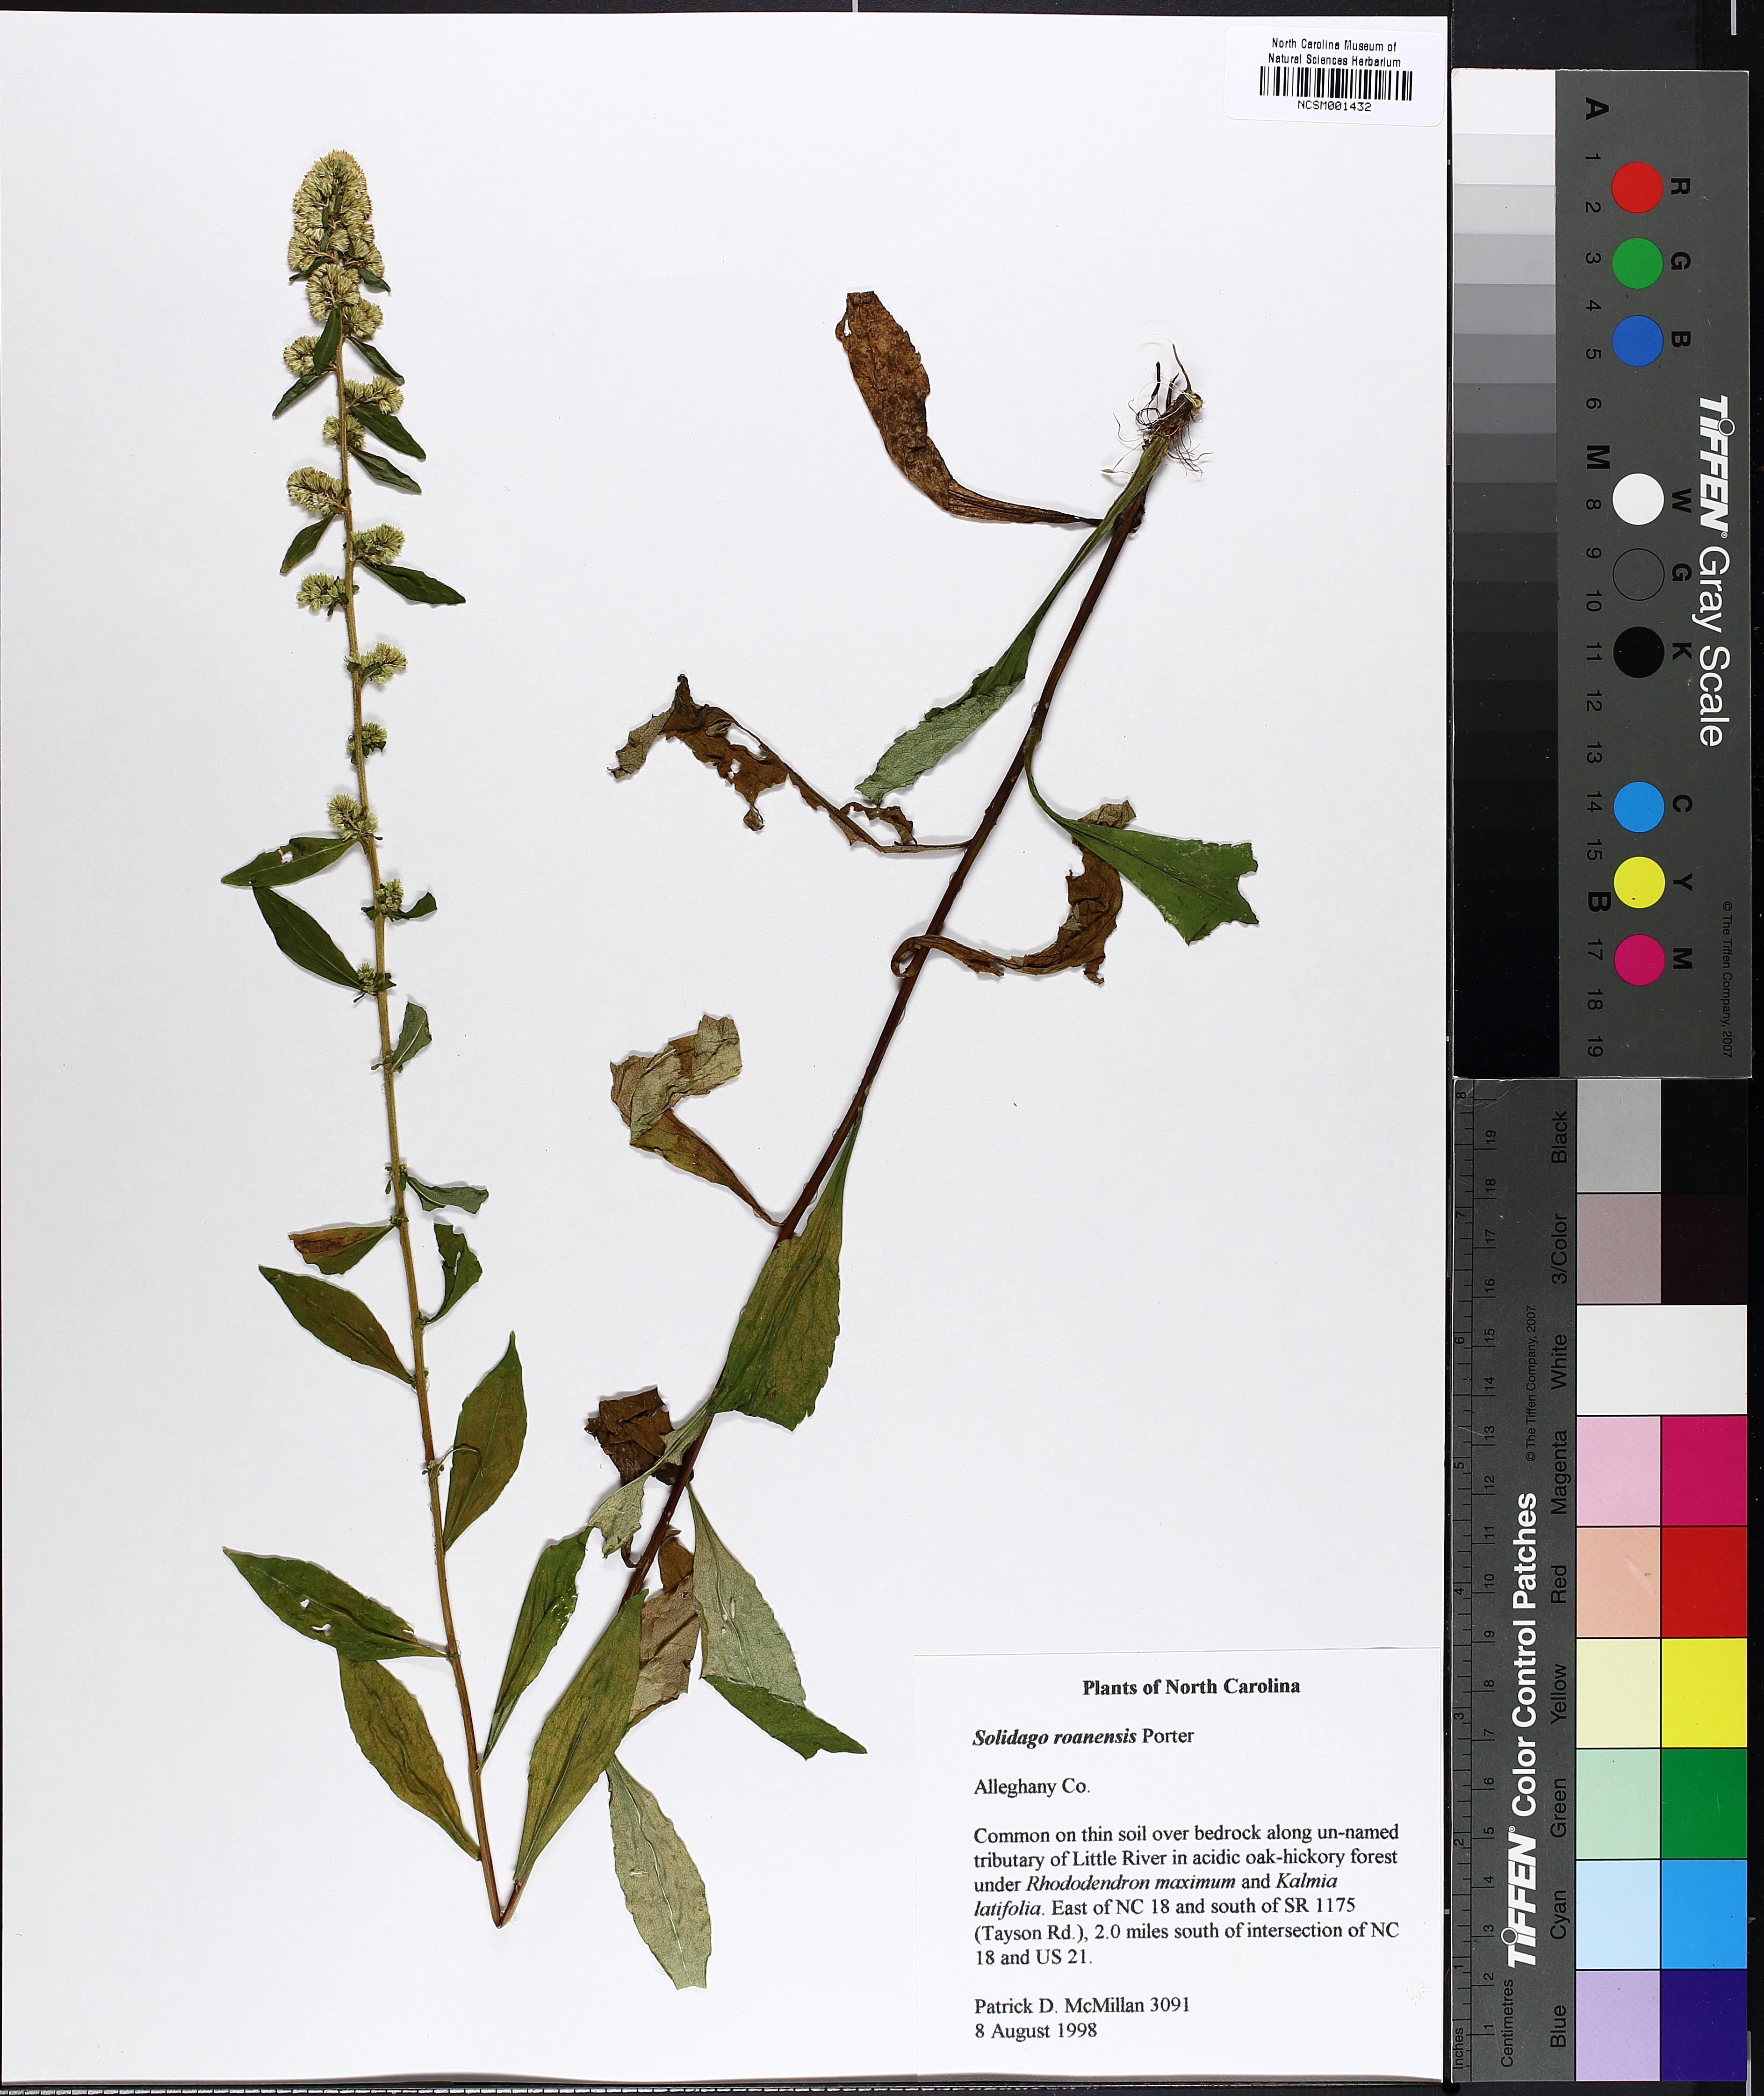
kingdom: Plantae
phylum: Tracheophyta
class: Magnoliopsida
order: Asterales
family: Asteraceae
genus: Solidago
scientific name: Solidago roanensis
